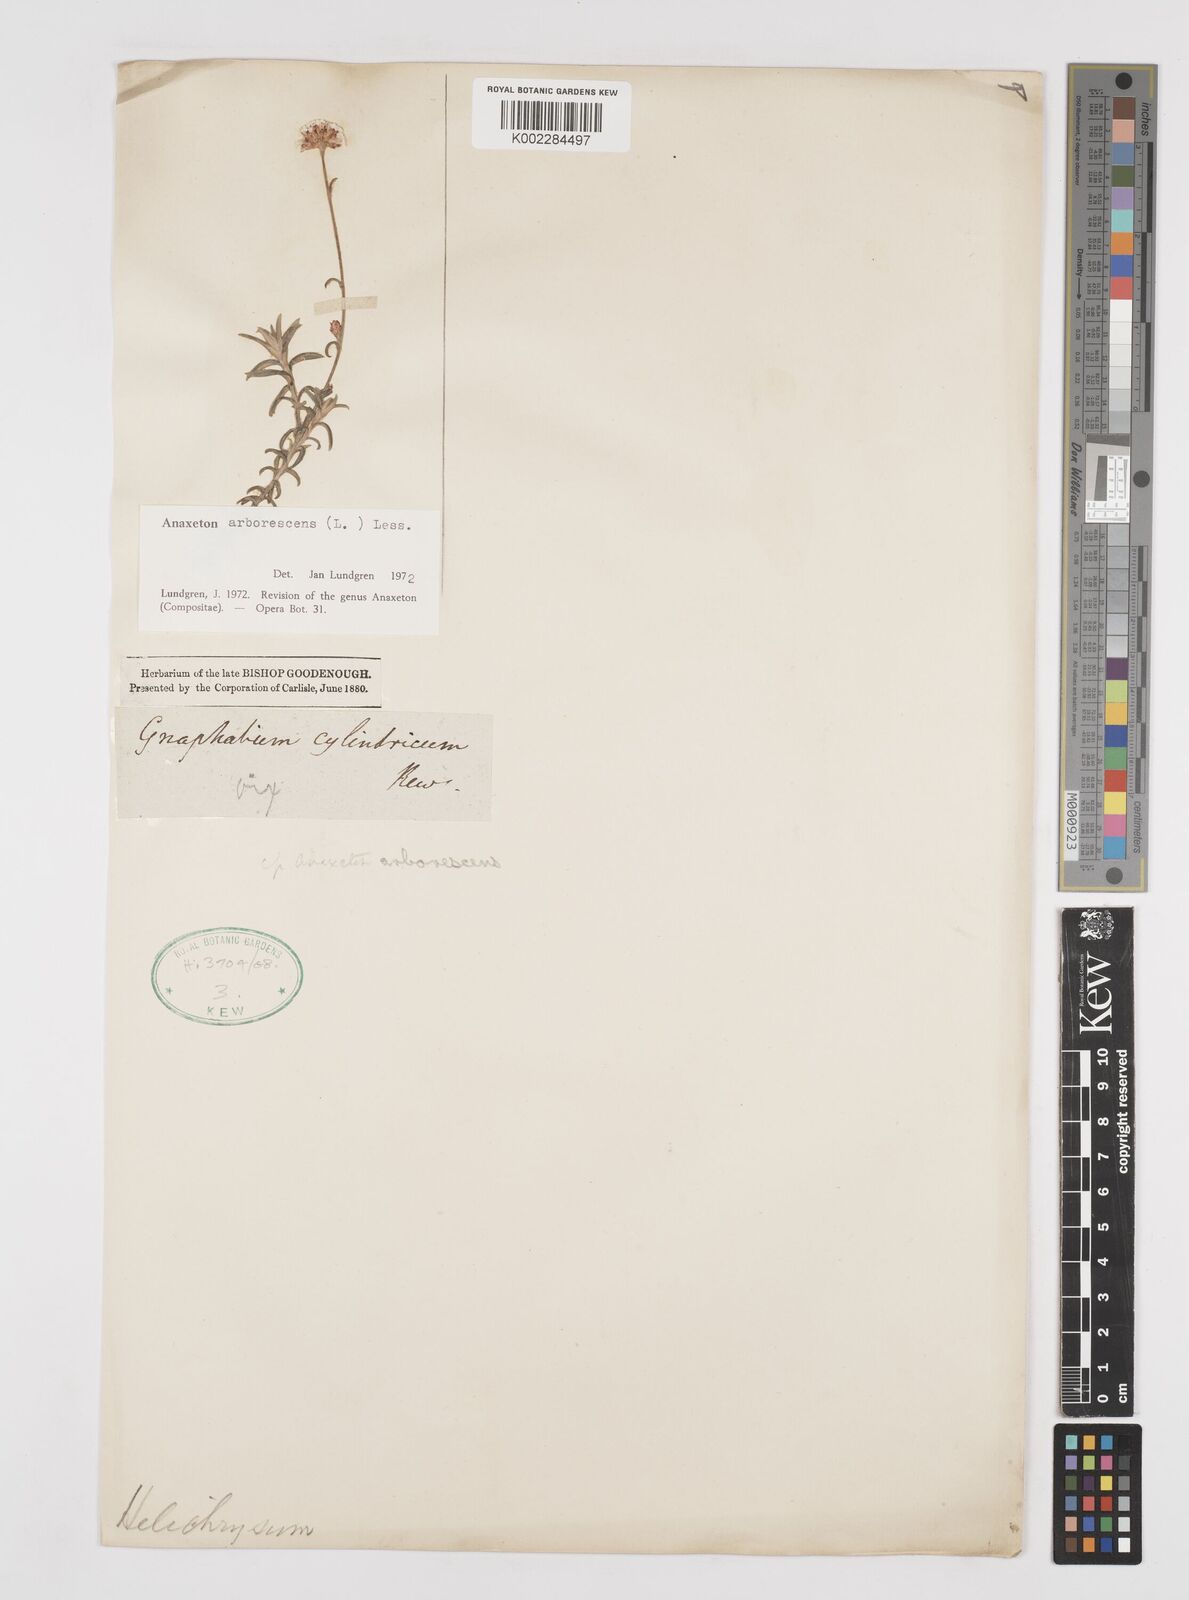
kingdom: Plantae
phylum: Tracheophyta
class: Magnoliopsida
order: Asterales
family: Asteraceae
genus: Anaxeton
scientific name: Anaxeton arborescens
